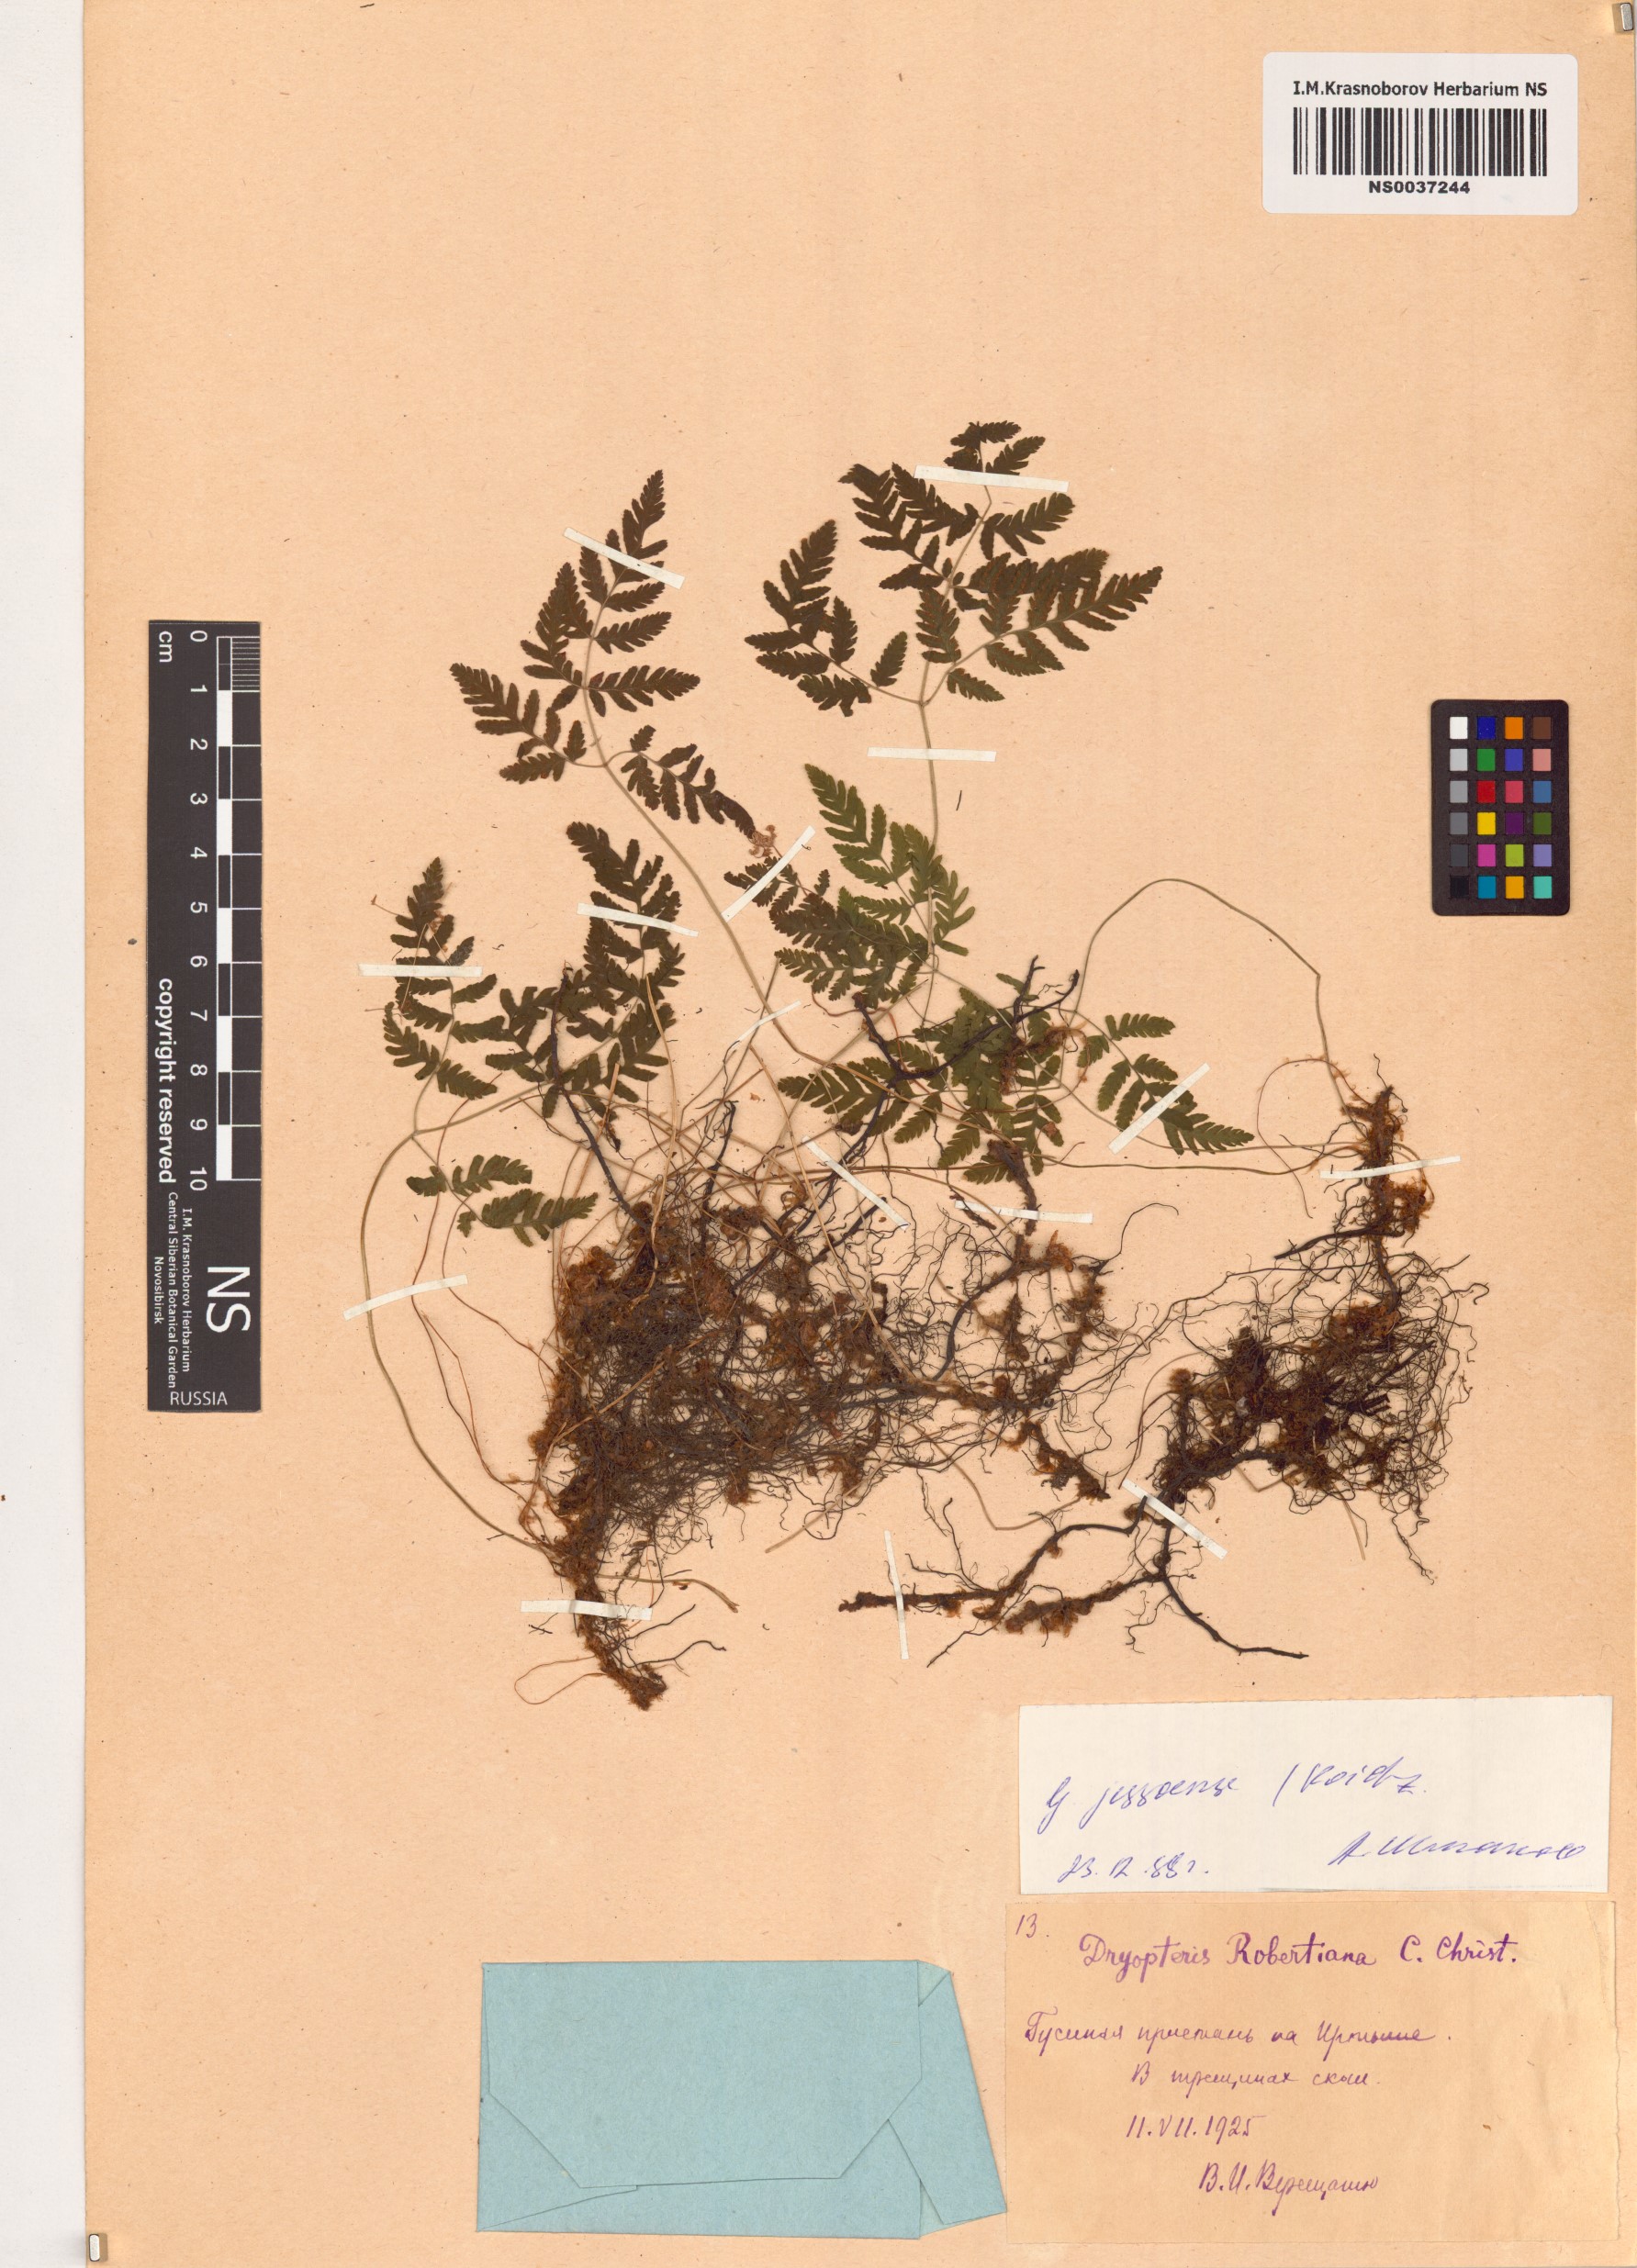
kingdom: Plantae
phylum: Tracheophyta
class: Polypodiopsida
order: Polypodiales
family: Cystopteridaceae
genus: Gymnocarpium
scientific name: Gymnocarpium jessoense
